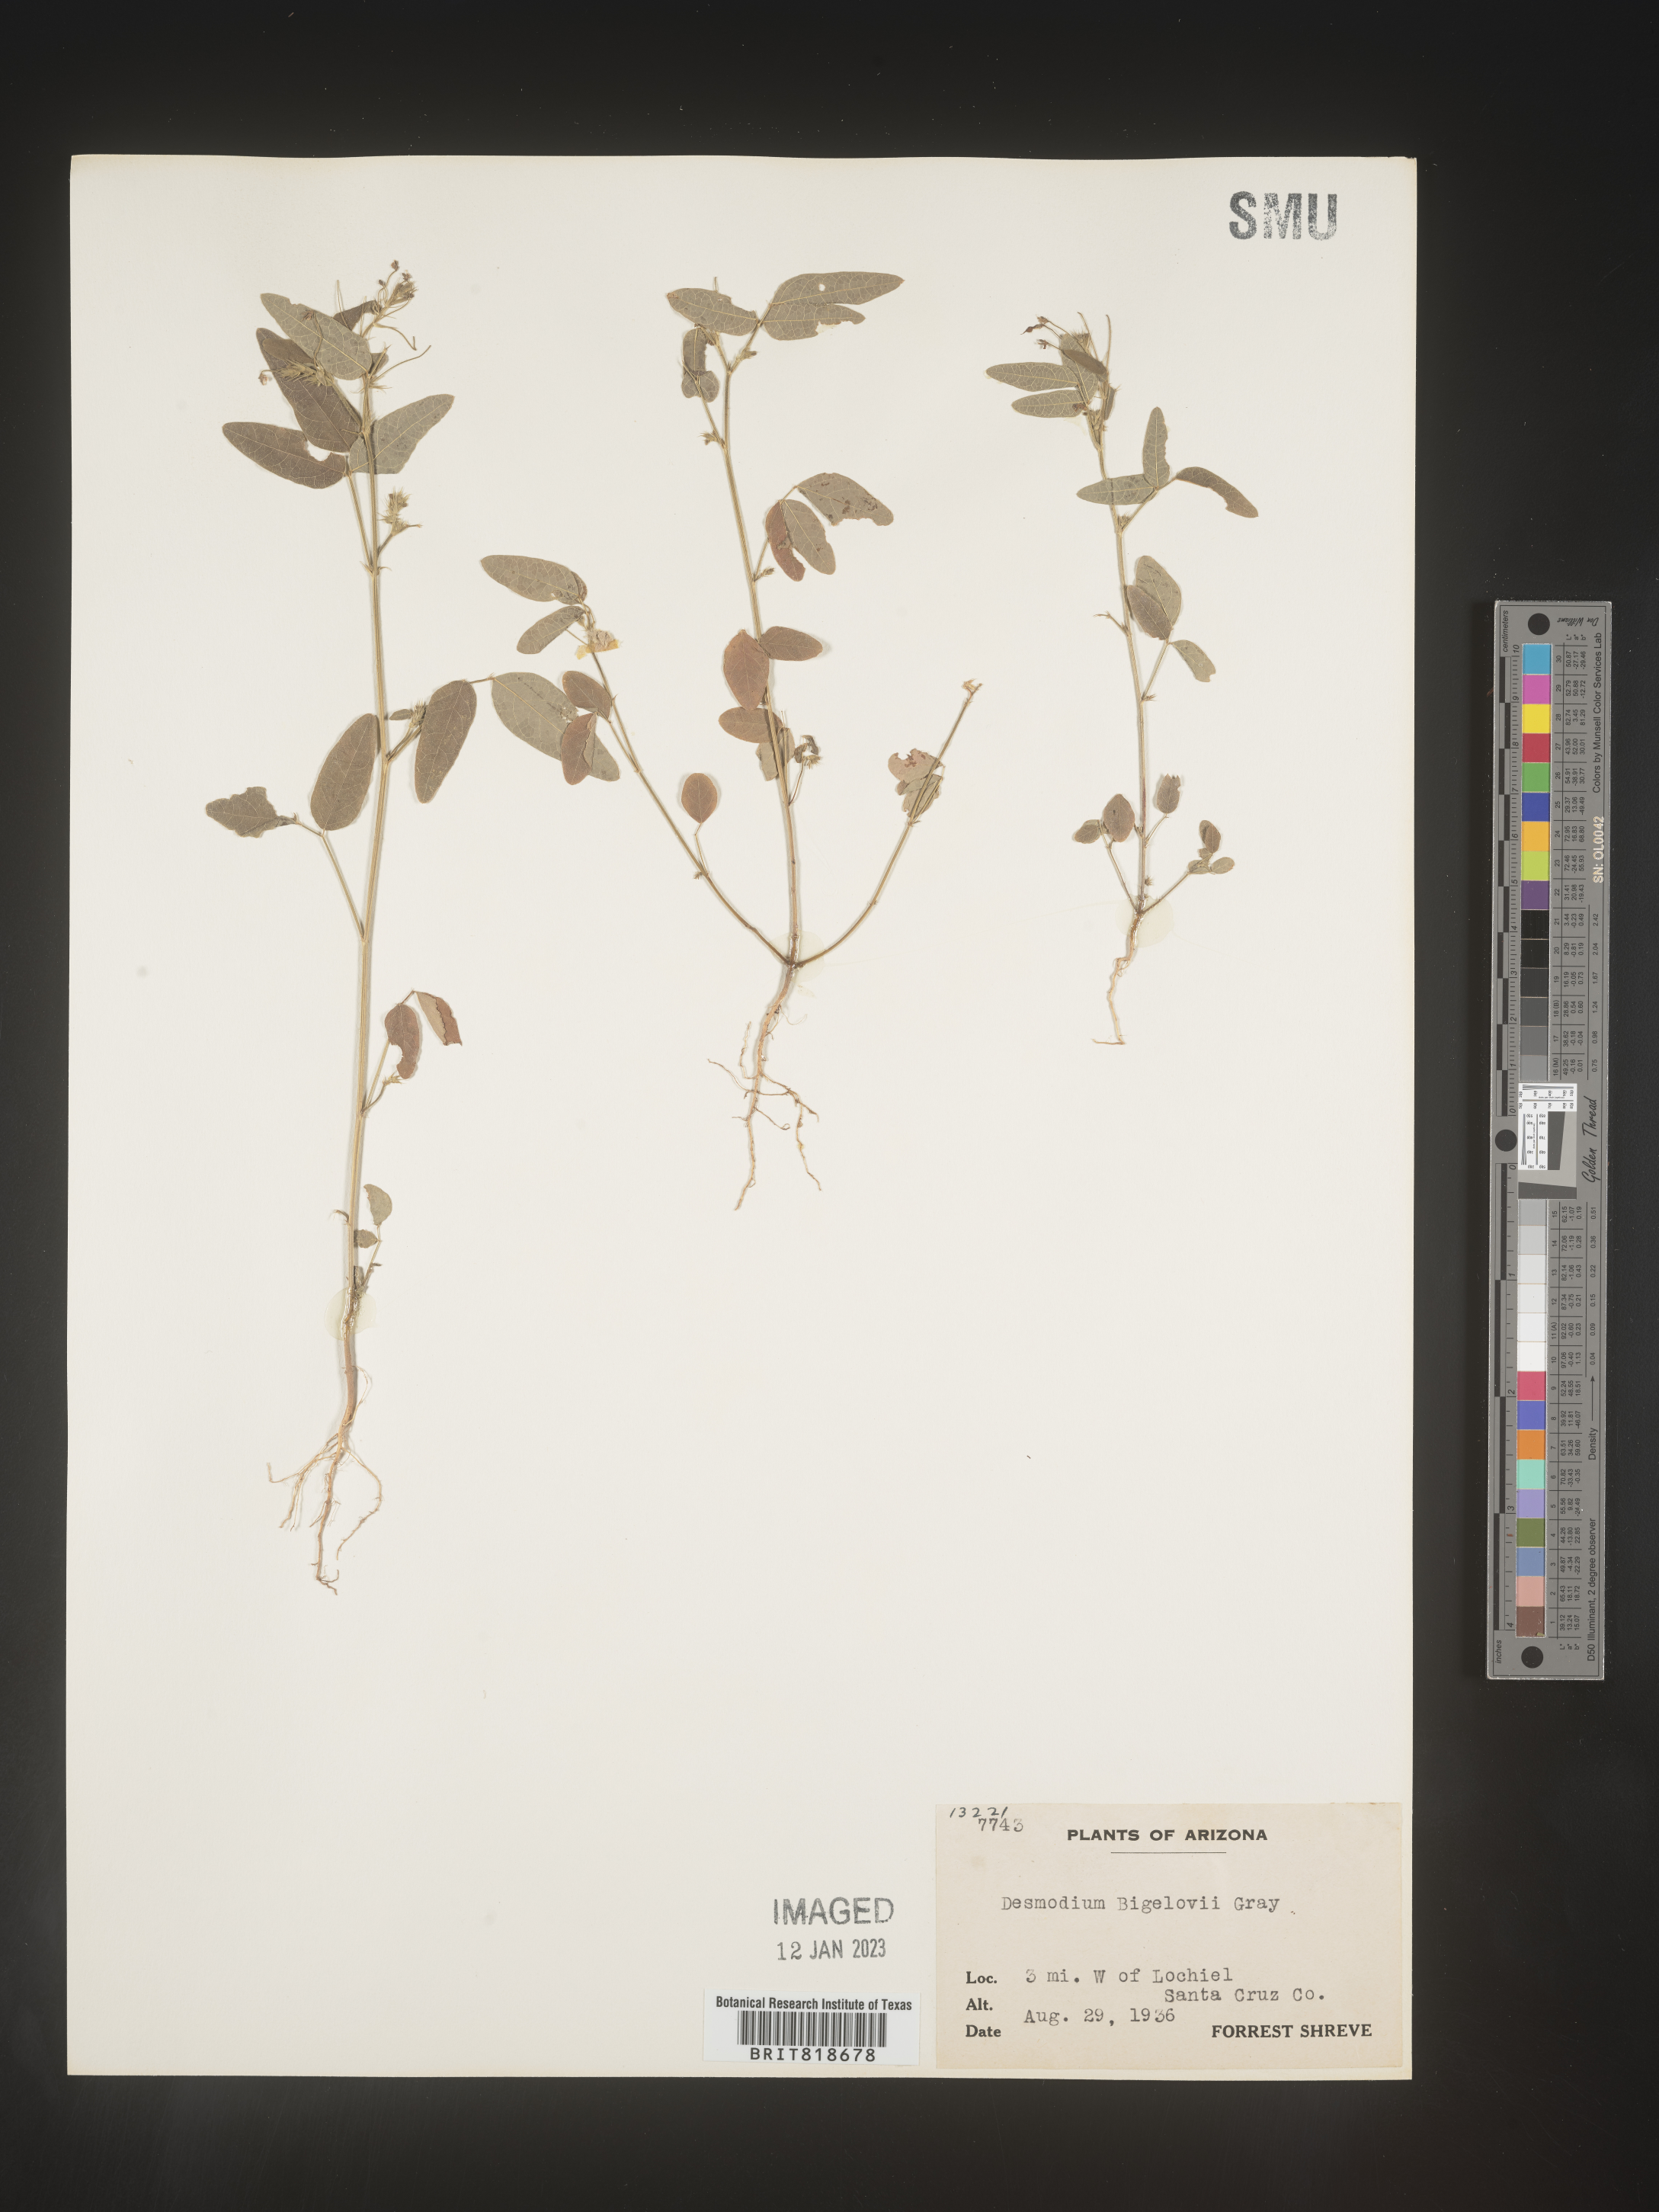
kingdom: Plantae
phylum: Tracheophyta
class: Magnoliopsida
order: Fabales
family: Fabaceae
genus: Desmodium
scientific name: Desmodium
